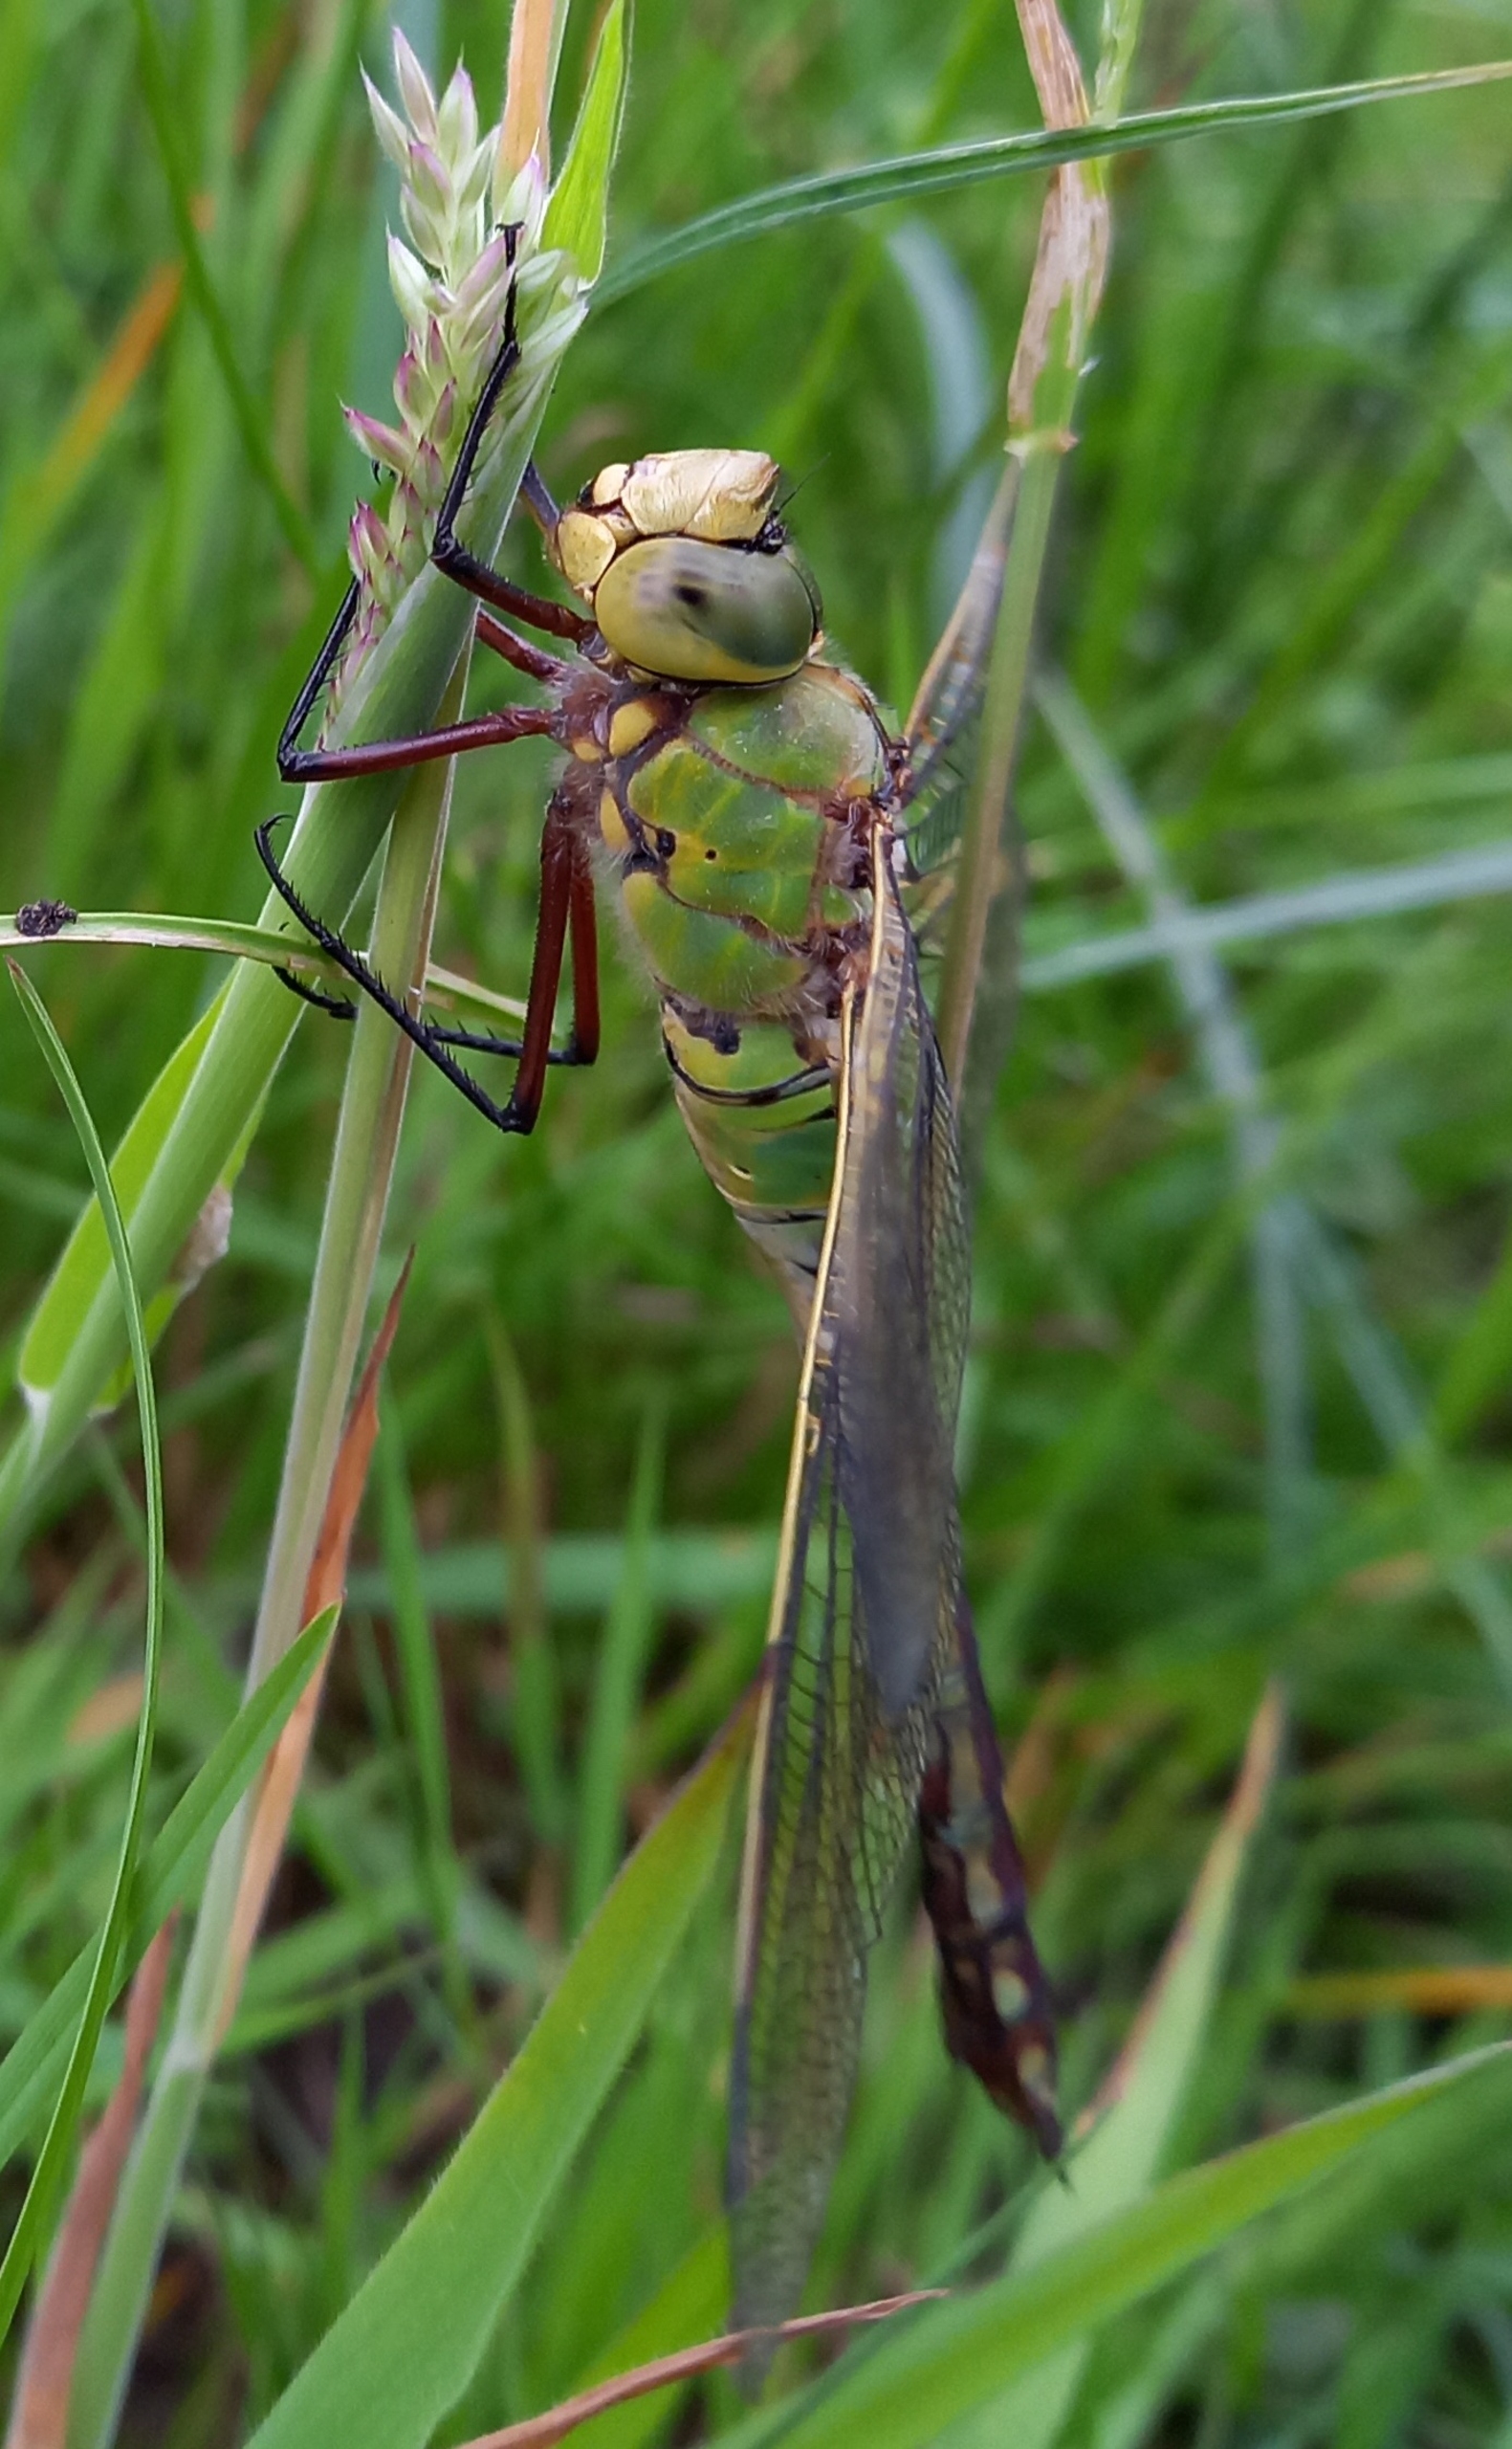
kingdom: Animalia
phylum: Arthropoda
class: Insecta
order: Odonata
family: Aeshnidae
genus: Anax
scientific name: Anax imperator
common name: Stor kejserguldsmed
